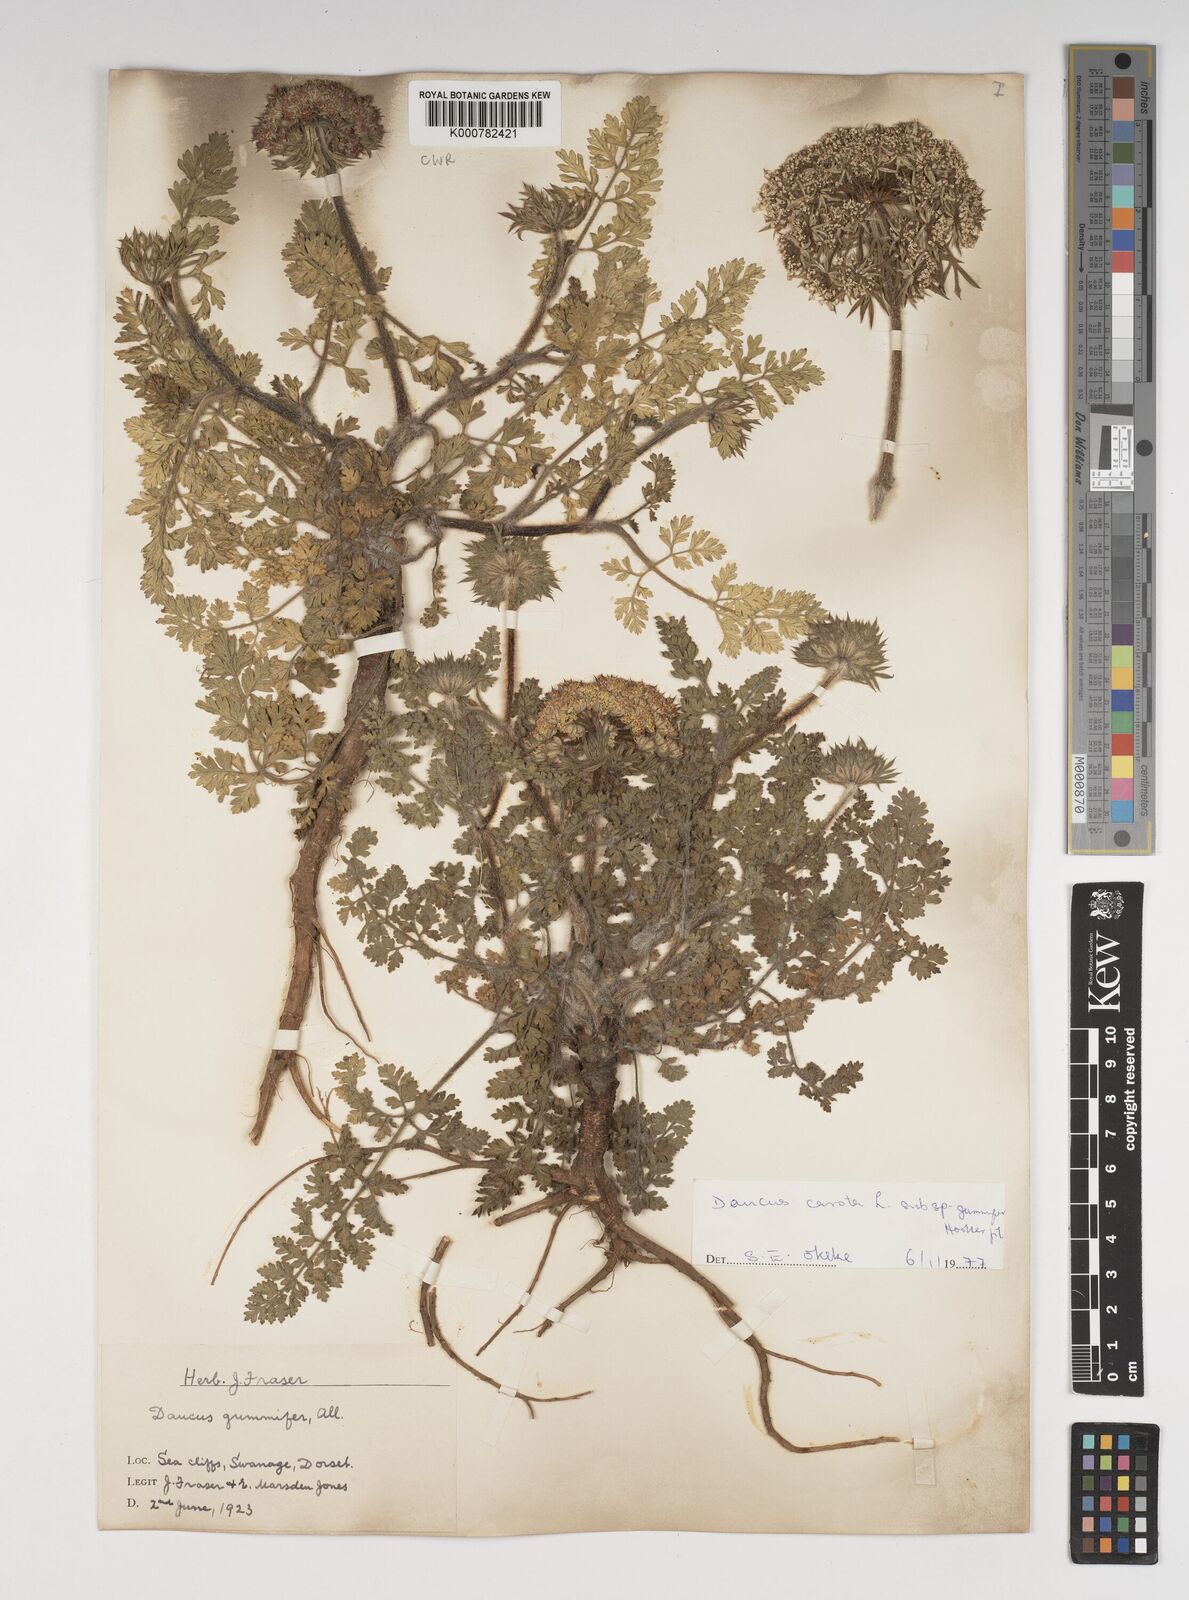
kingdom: Plantae
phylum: Tracheophyta
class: Magnoliopsida
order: Apiales
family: Apiaceae
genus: Daucus
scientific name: Daucus carota
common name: Wild carrot
